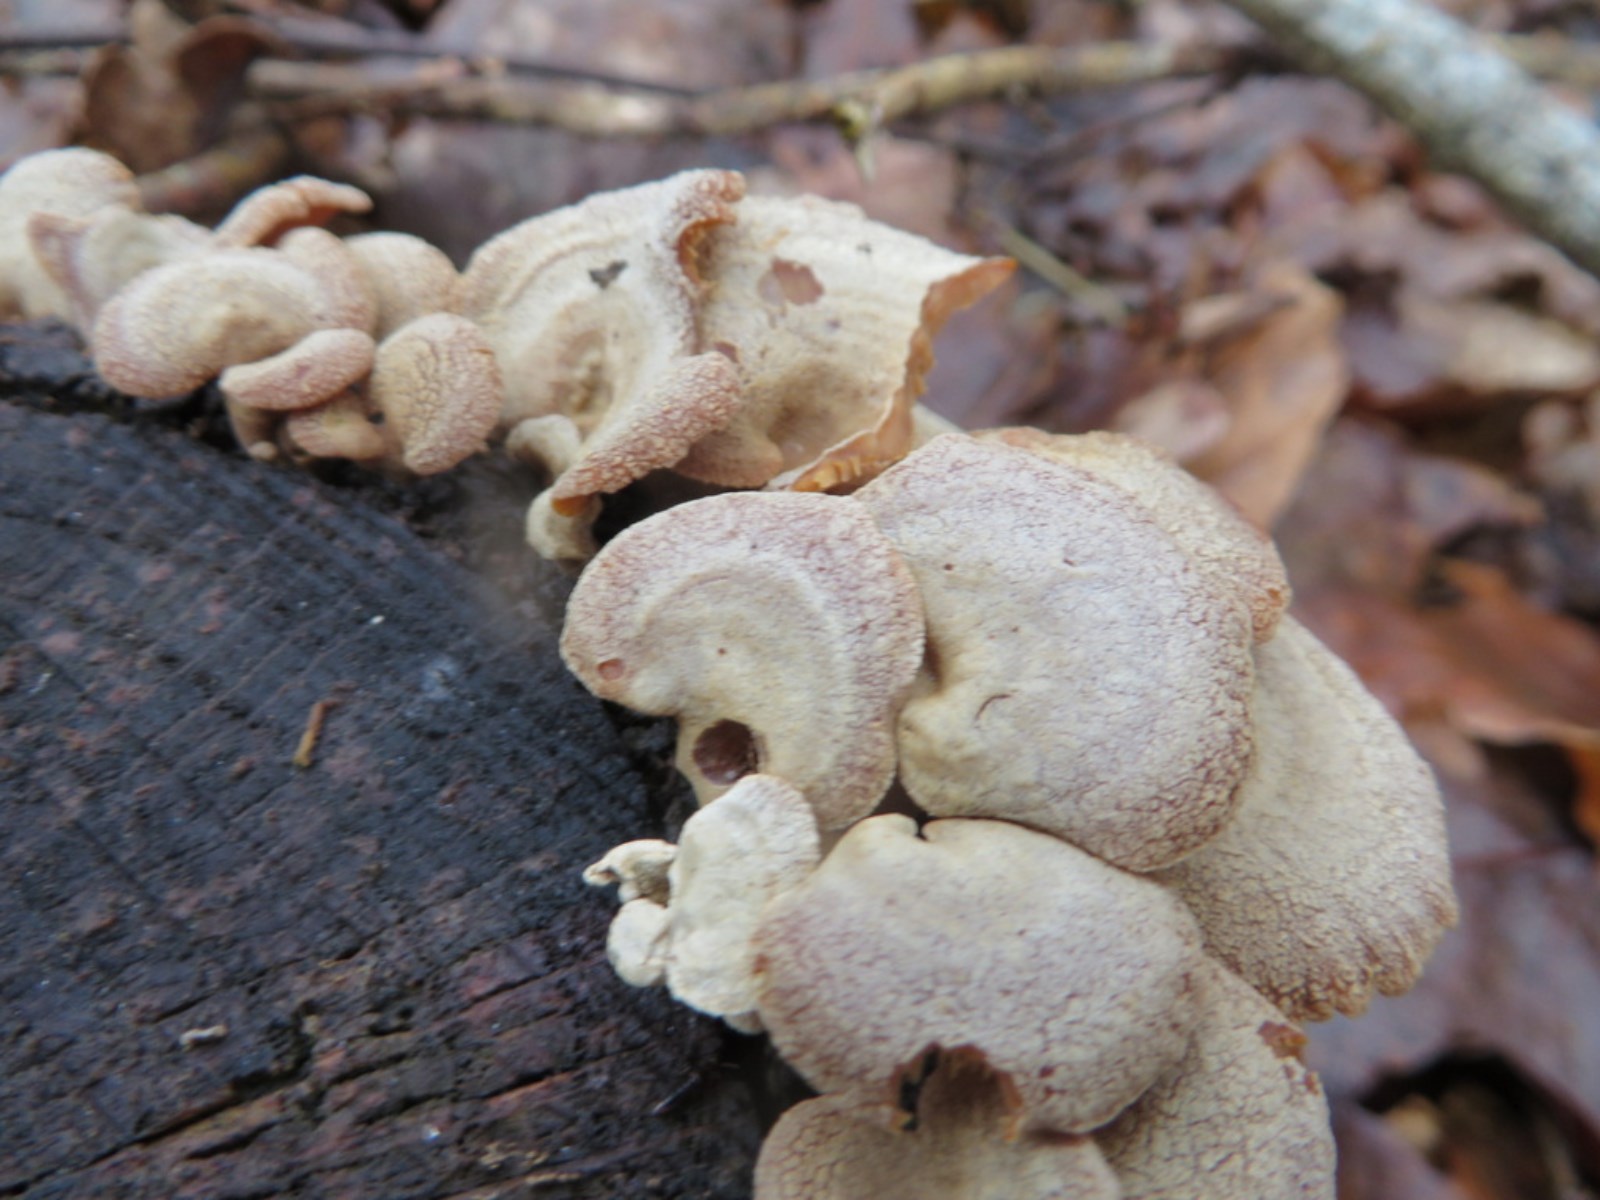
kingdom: Fungi
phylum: Basidiomycota
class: Agaricomycetes
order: Agaricales
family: Mycenaceae
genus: Panellus
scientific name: Panellus stipticus
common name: kliddet epaulethat
